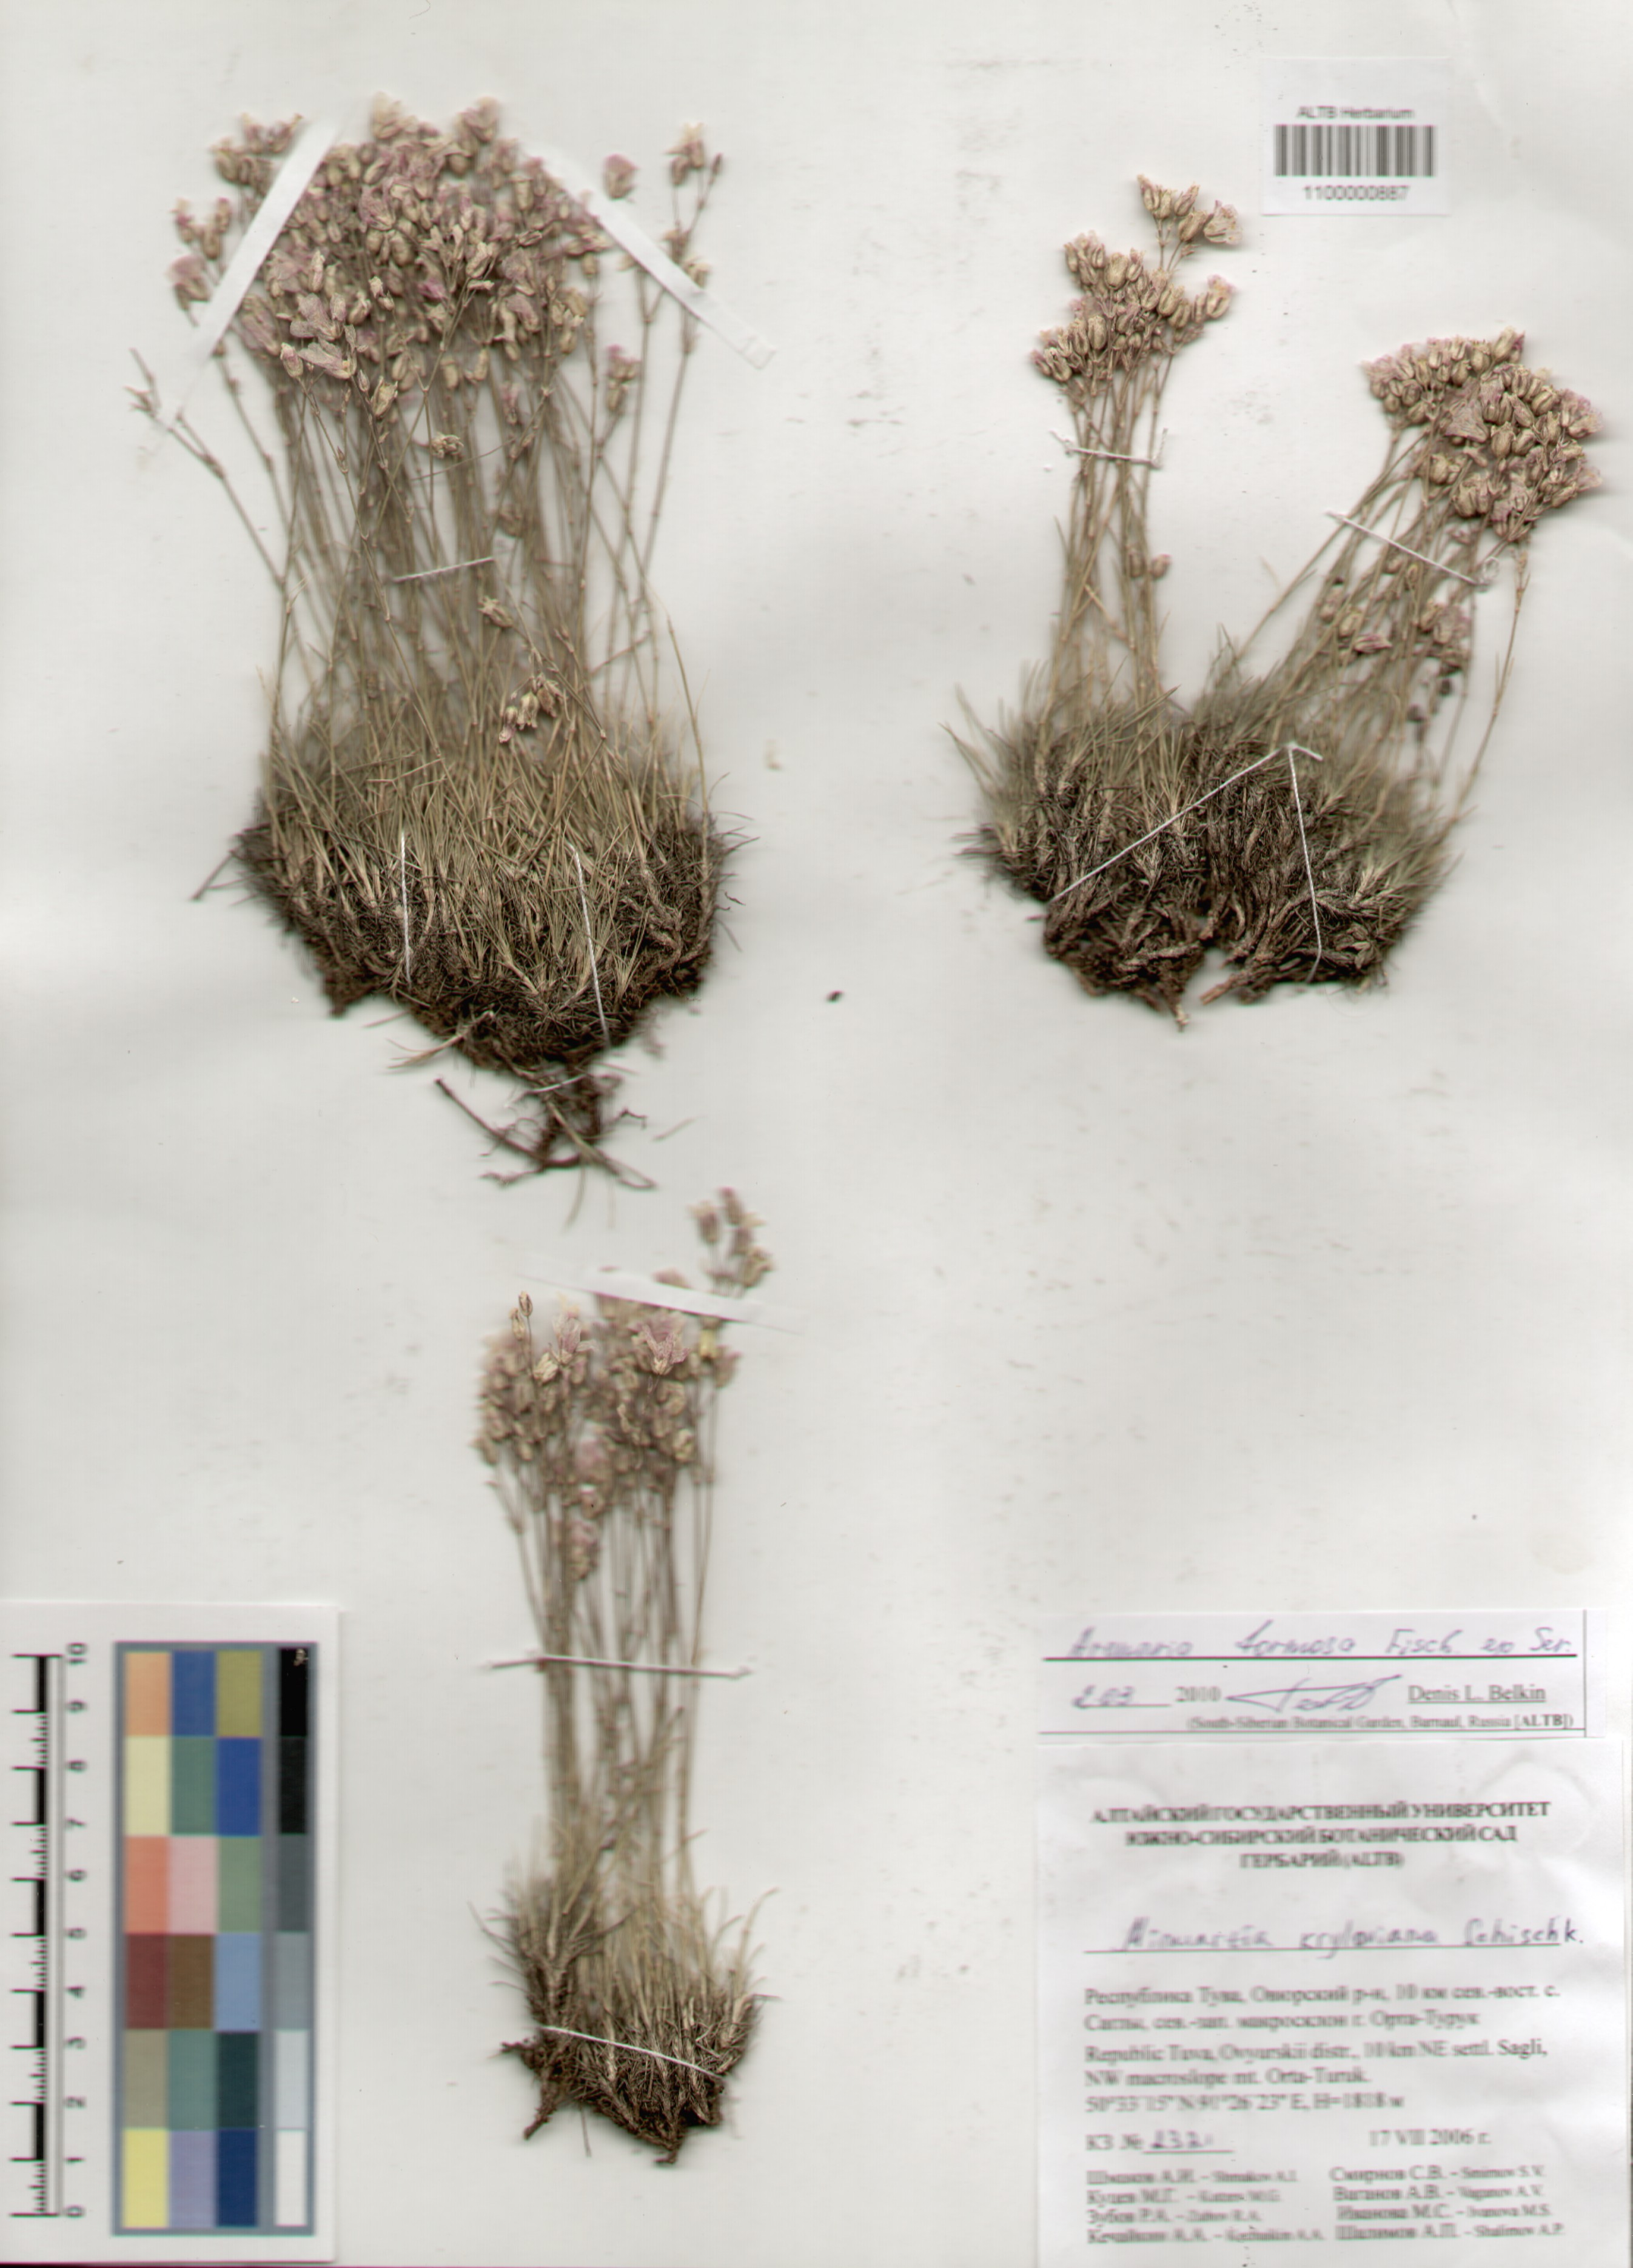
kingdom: Plantae
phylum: Tracheophyta
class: Magnoliopsida
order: Caryophyllales
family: Caryophyllaceae
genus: Eremogone
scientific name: Eremogone formosa
